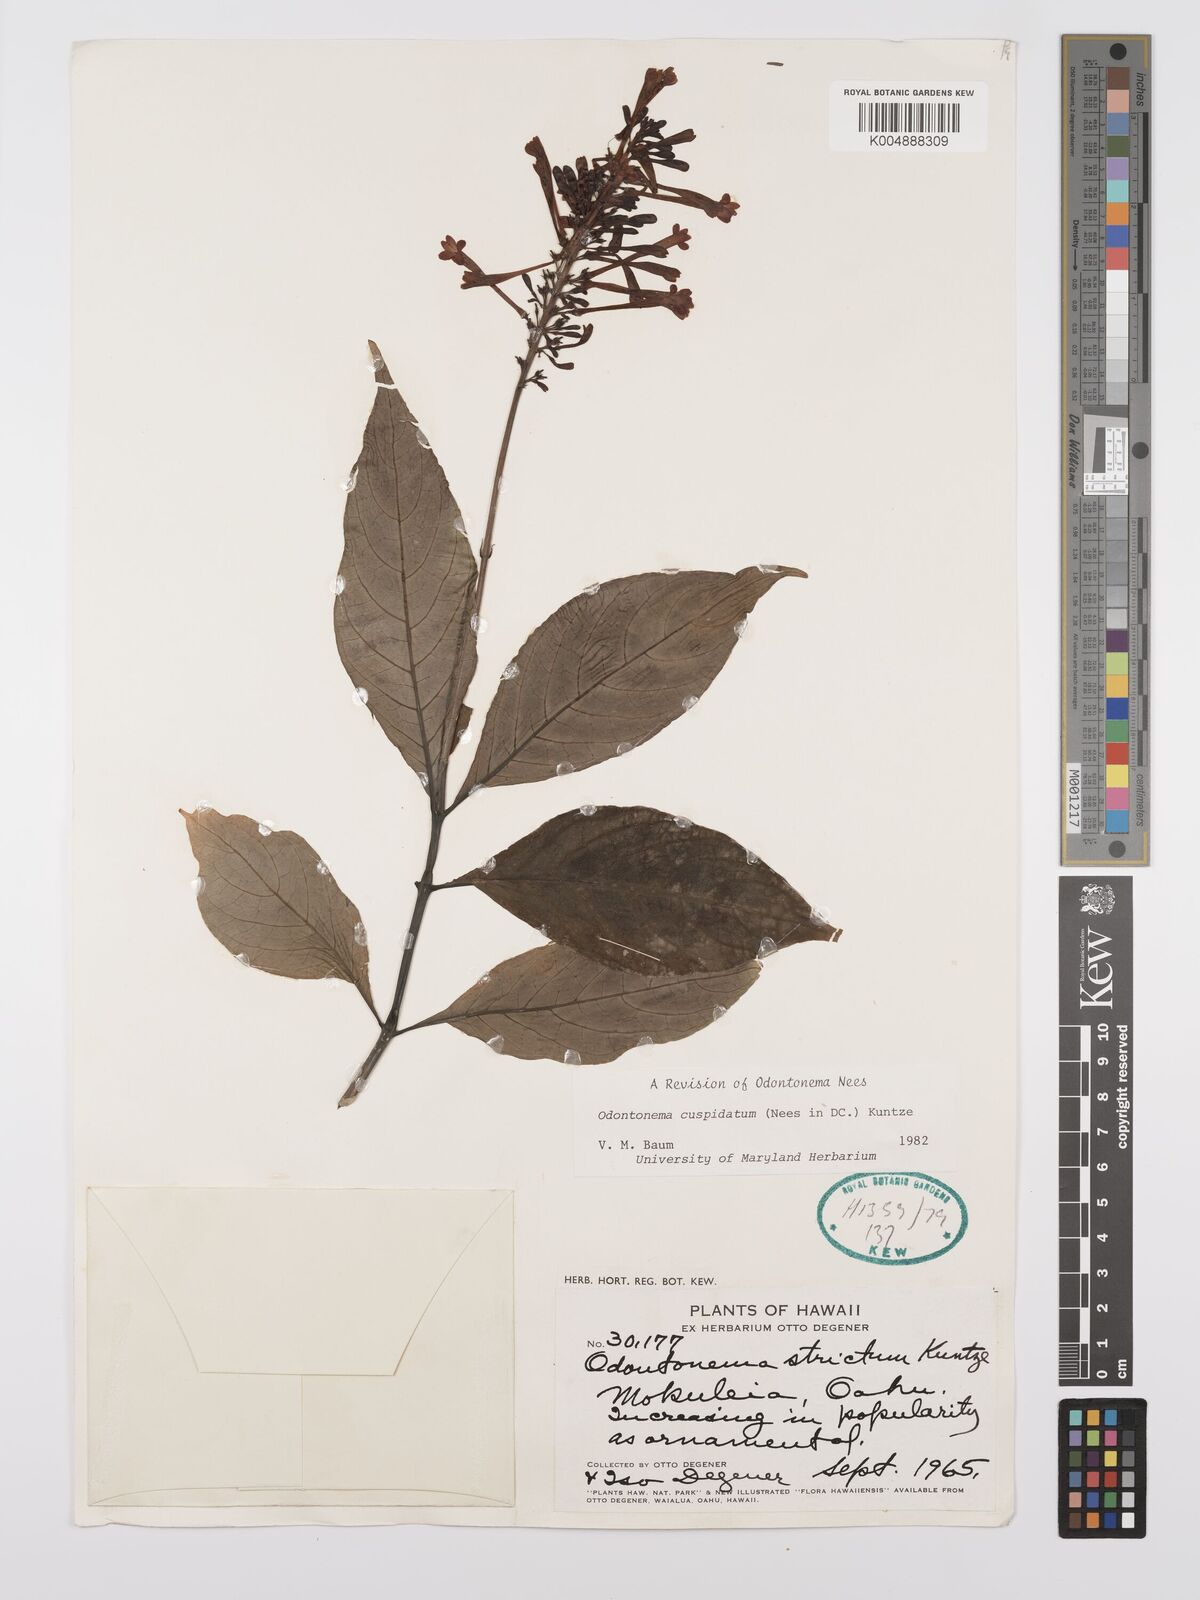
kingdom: Plantae
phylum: Tracheophyta
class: Magnoliopsida
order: Lamiales
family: Acanthaceae
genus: Odontonema
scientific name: Odontonema cuspidatum
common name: Mottled toothedthread
